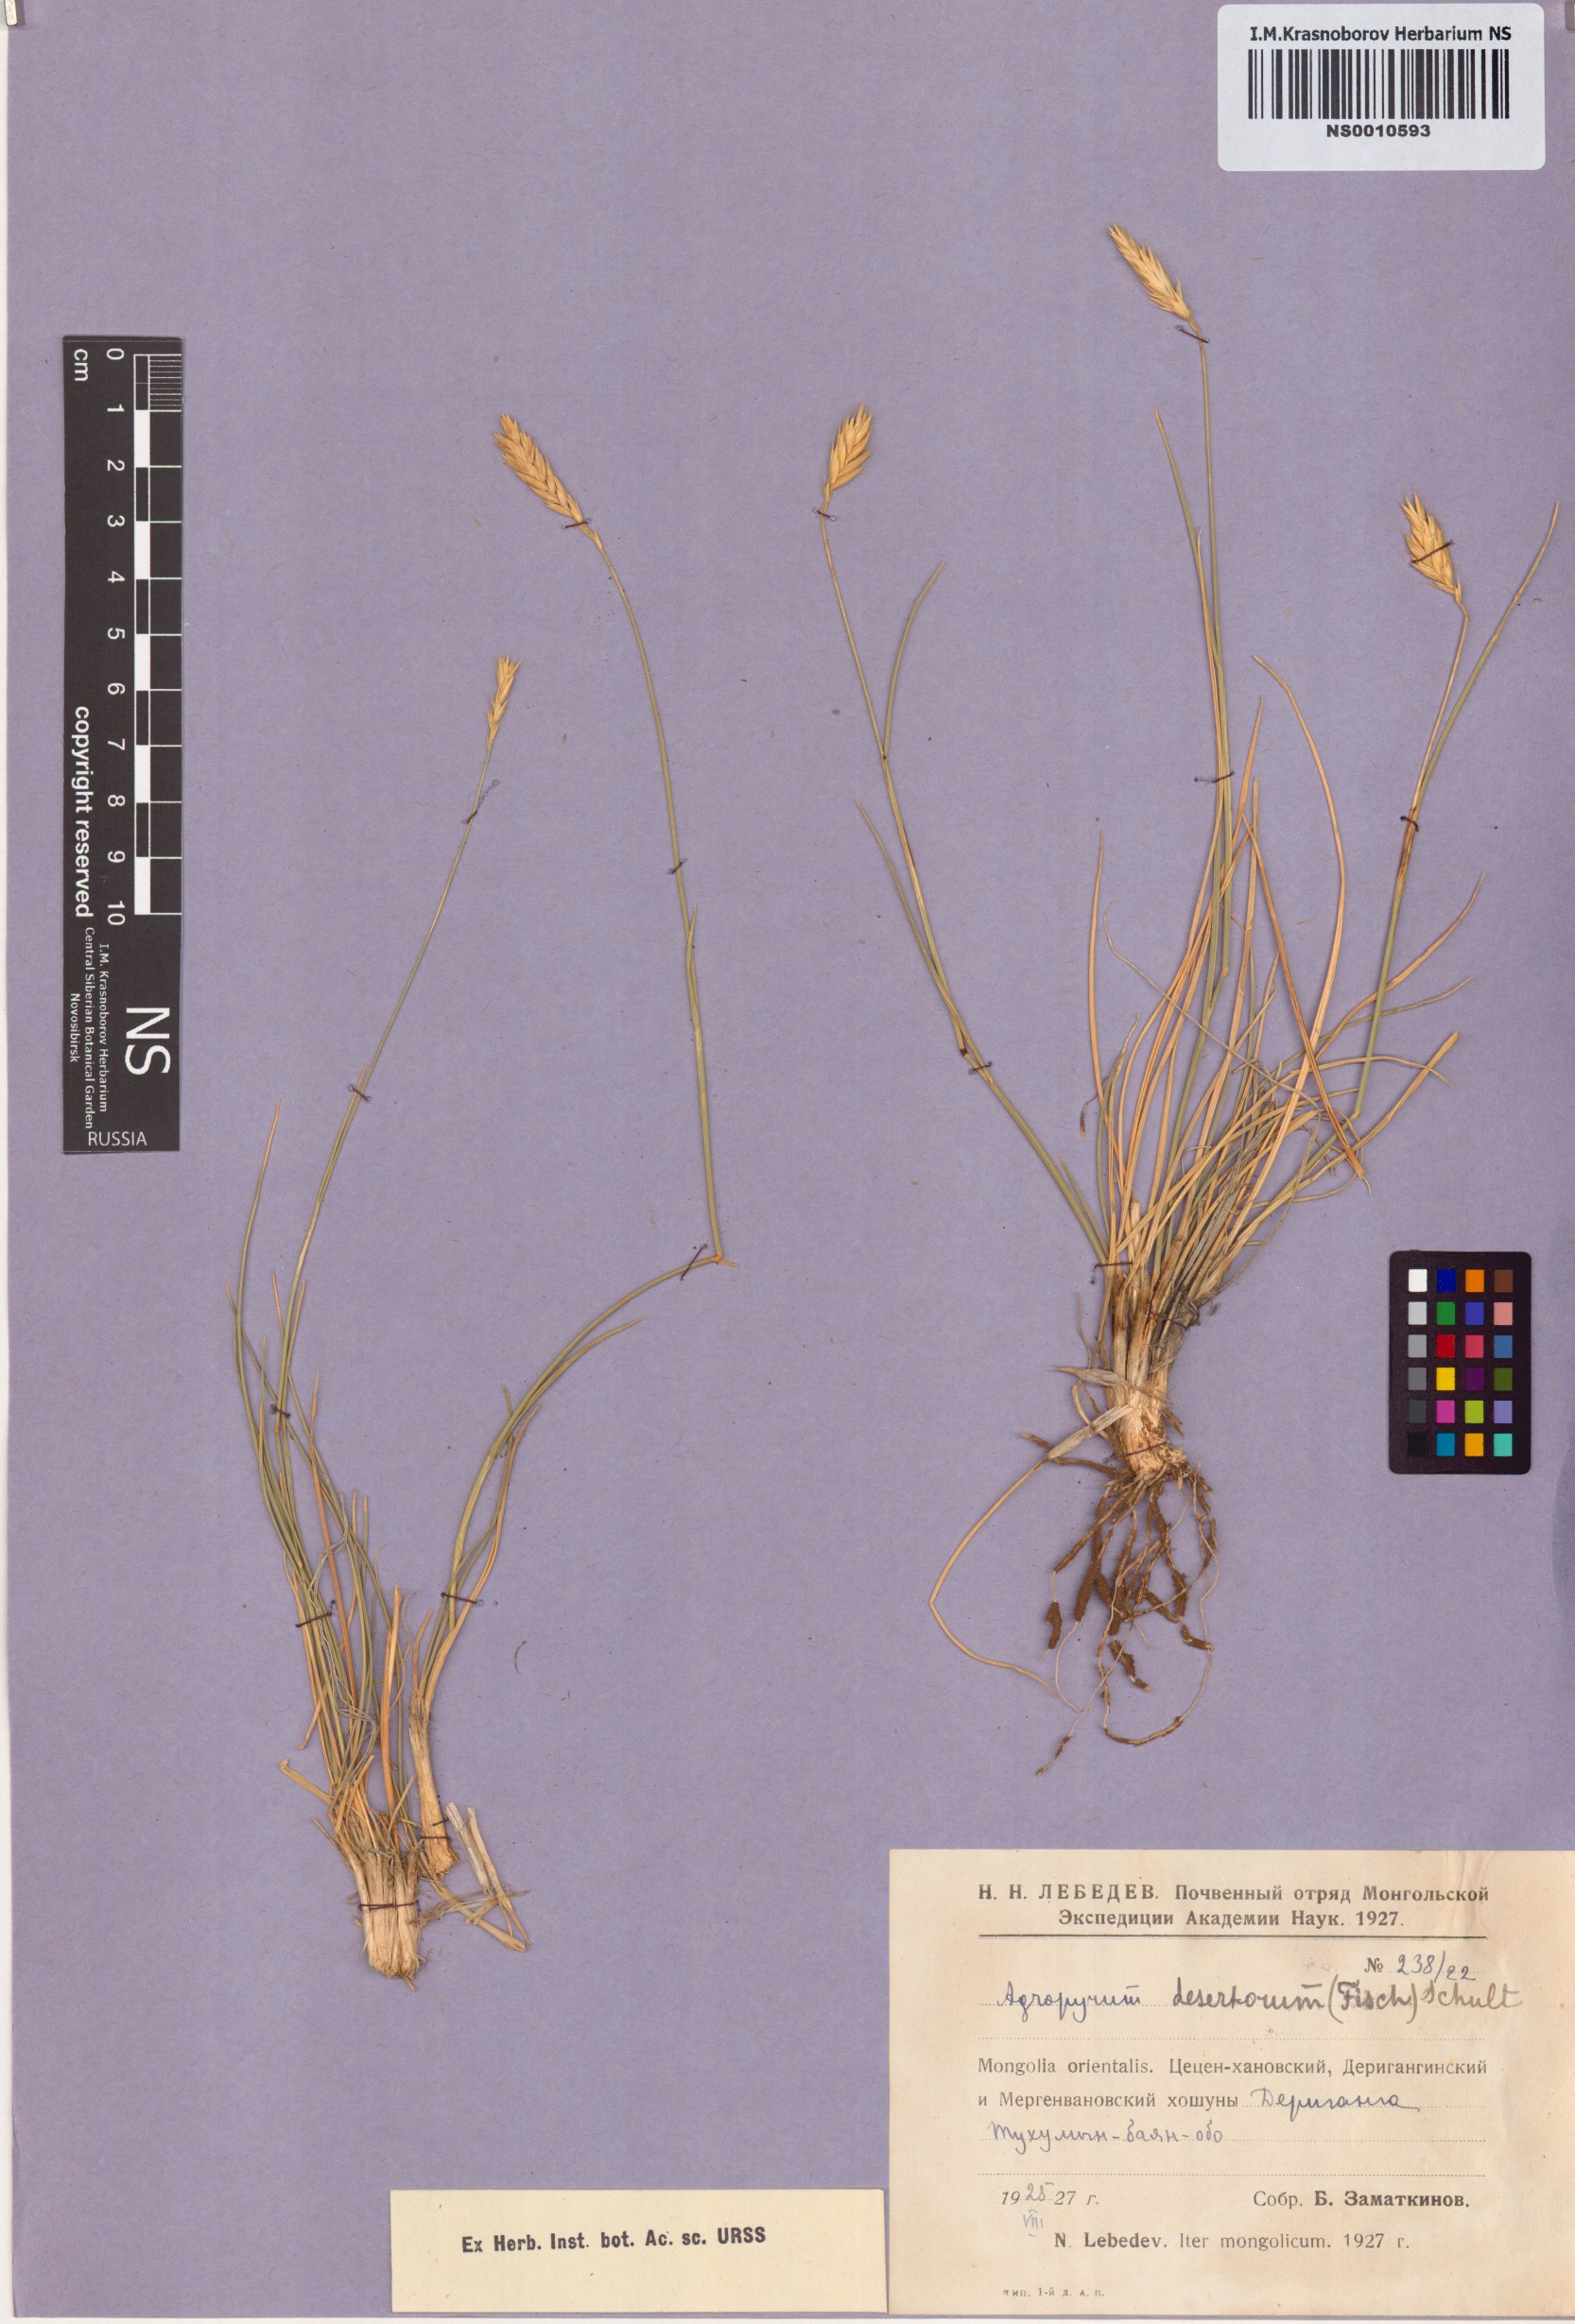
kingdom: Plantae
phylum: Tracheophyta
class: Liliopsida
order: Poales
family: Poaceae
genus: Agropyron
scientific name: Agropyron desertorum
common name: Desert wheatgrass
